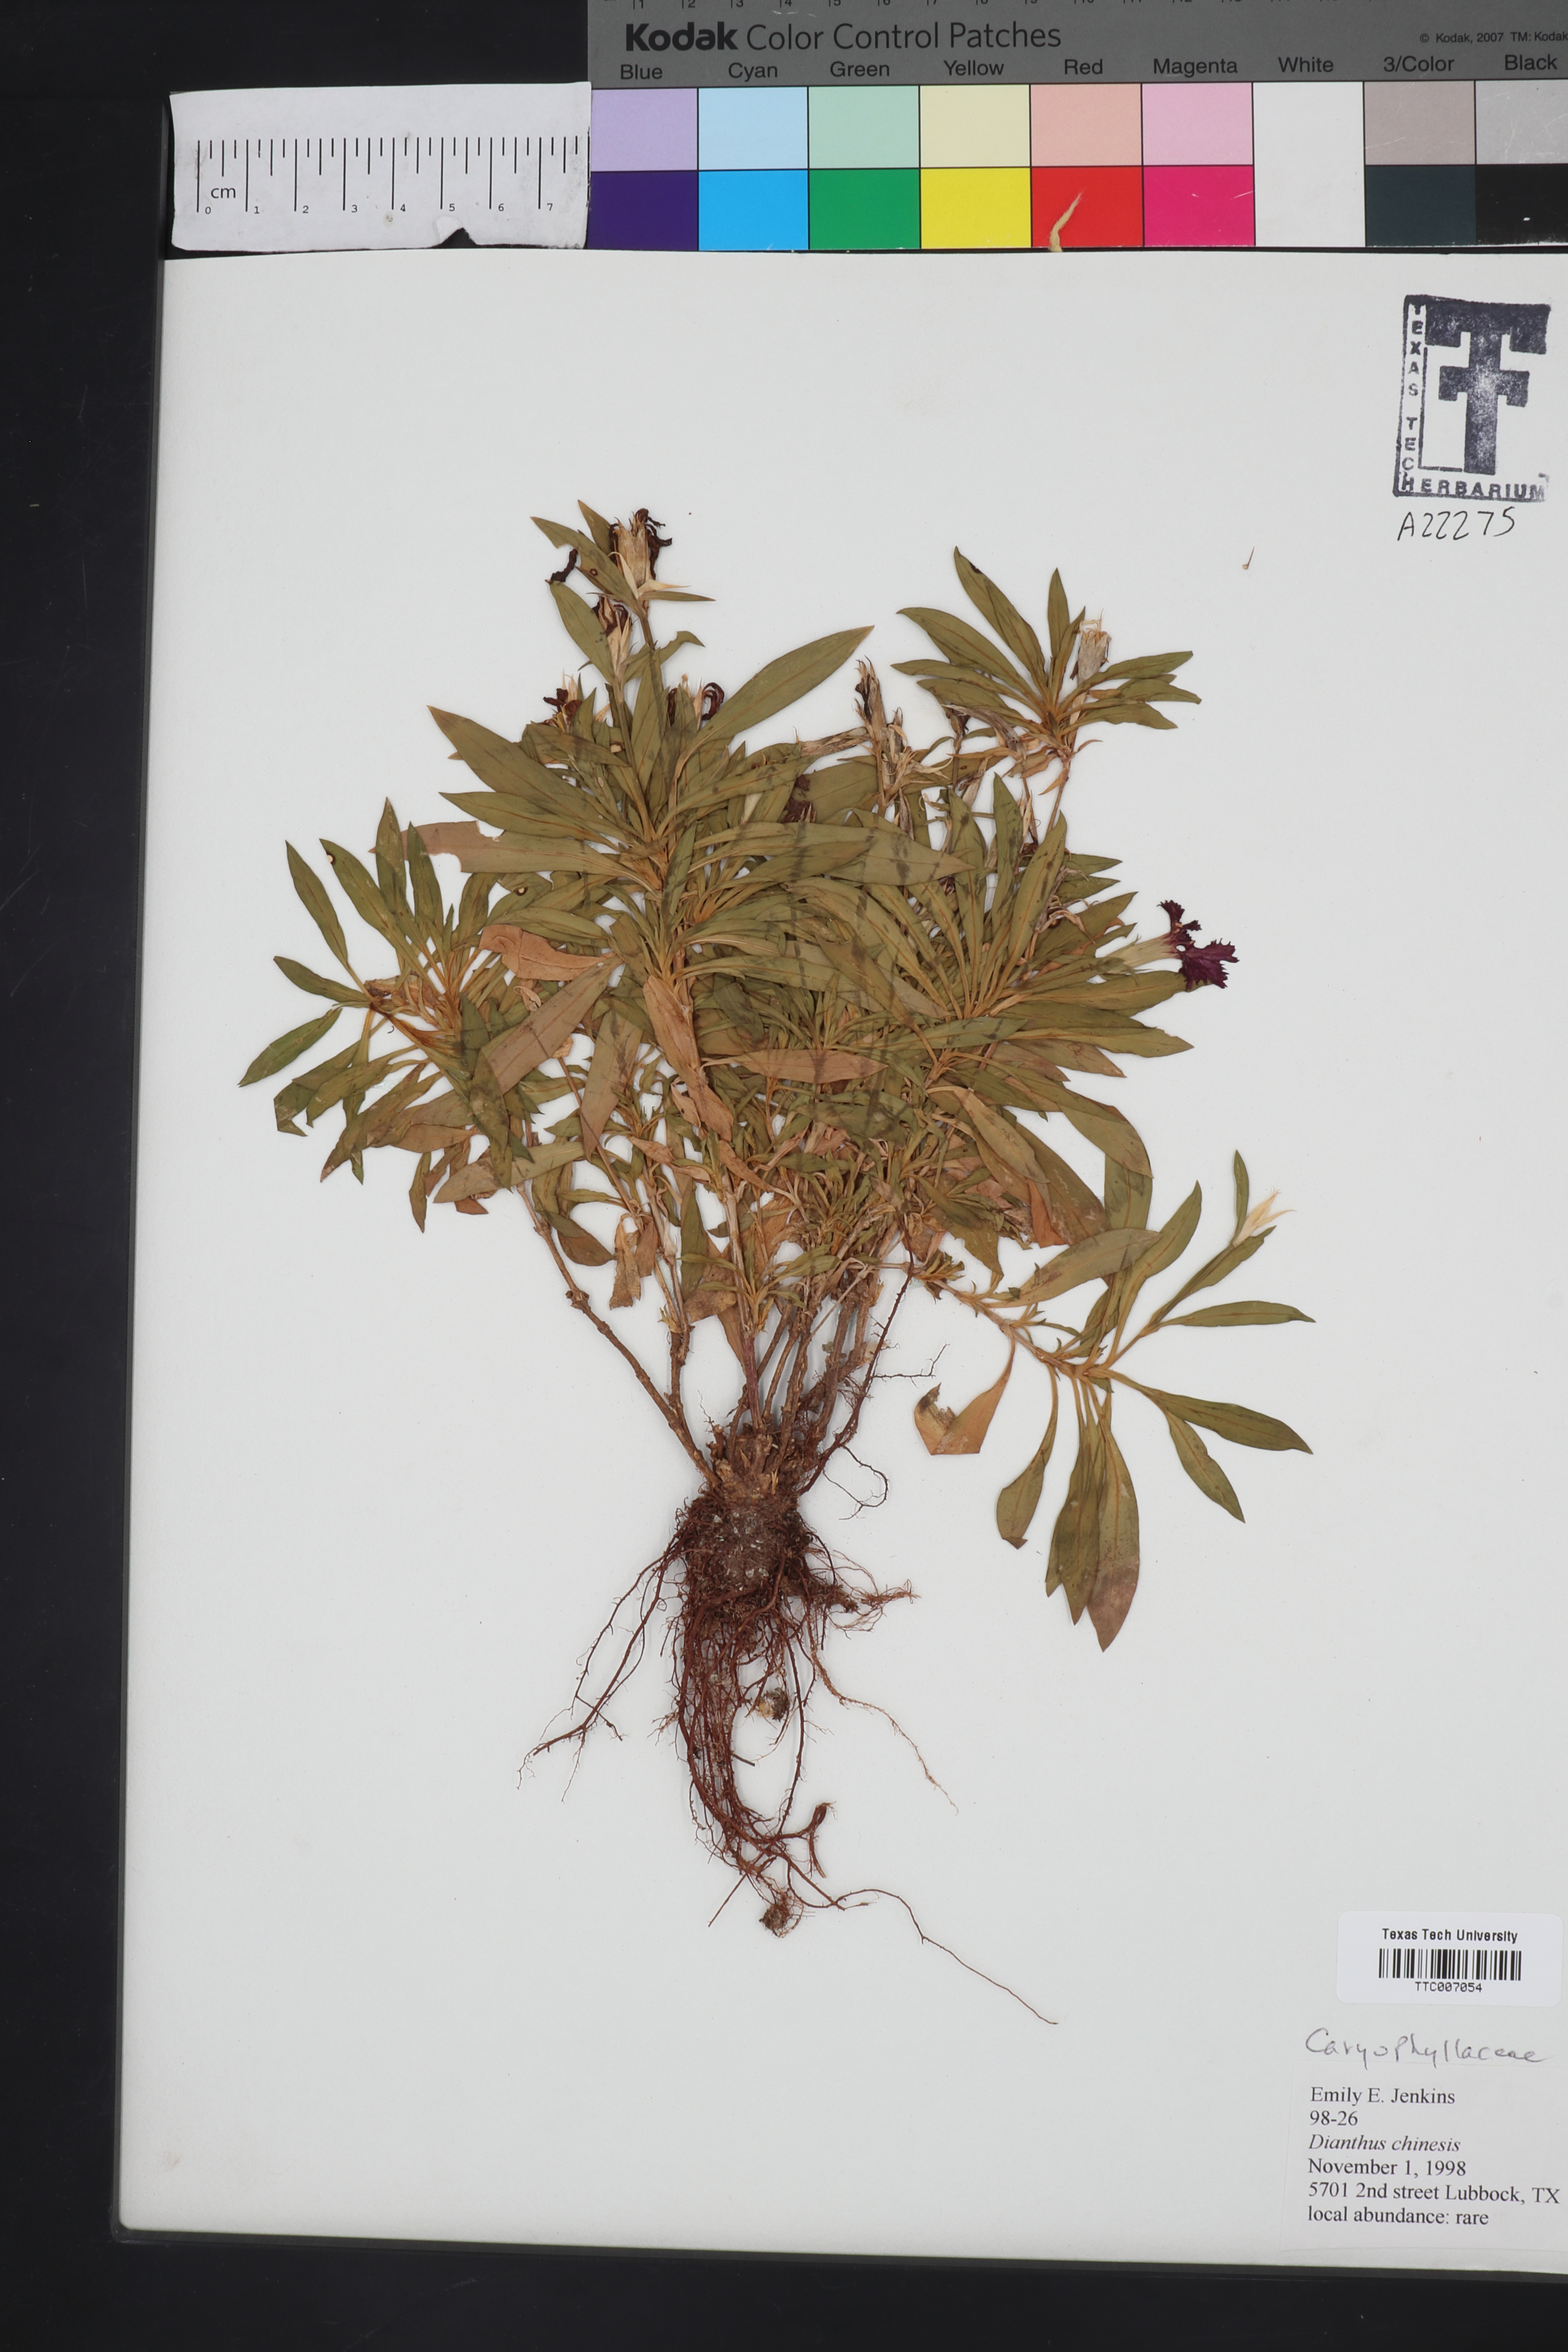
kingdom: Plantae
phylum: Tracheophyta
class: Magnoliopsida
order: Caryophyllales
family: Caryophyllaceae
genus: Dianthus
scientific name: Dianthus chinensis
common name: Rainbow pink
